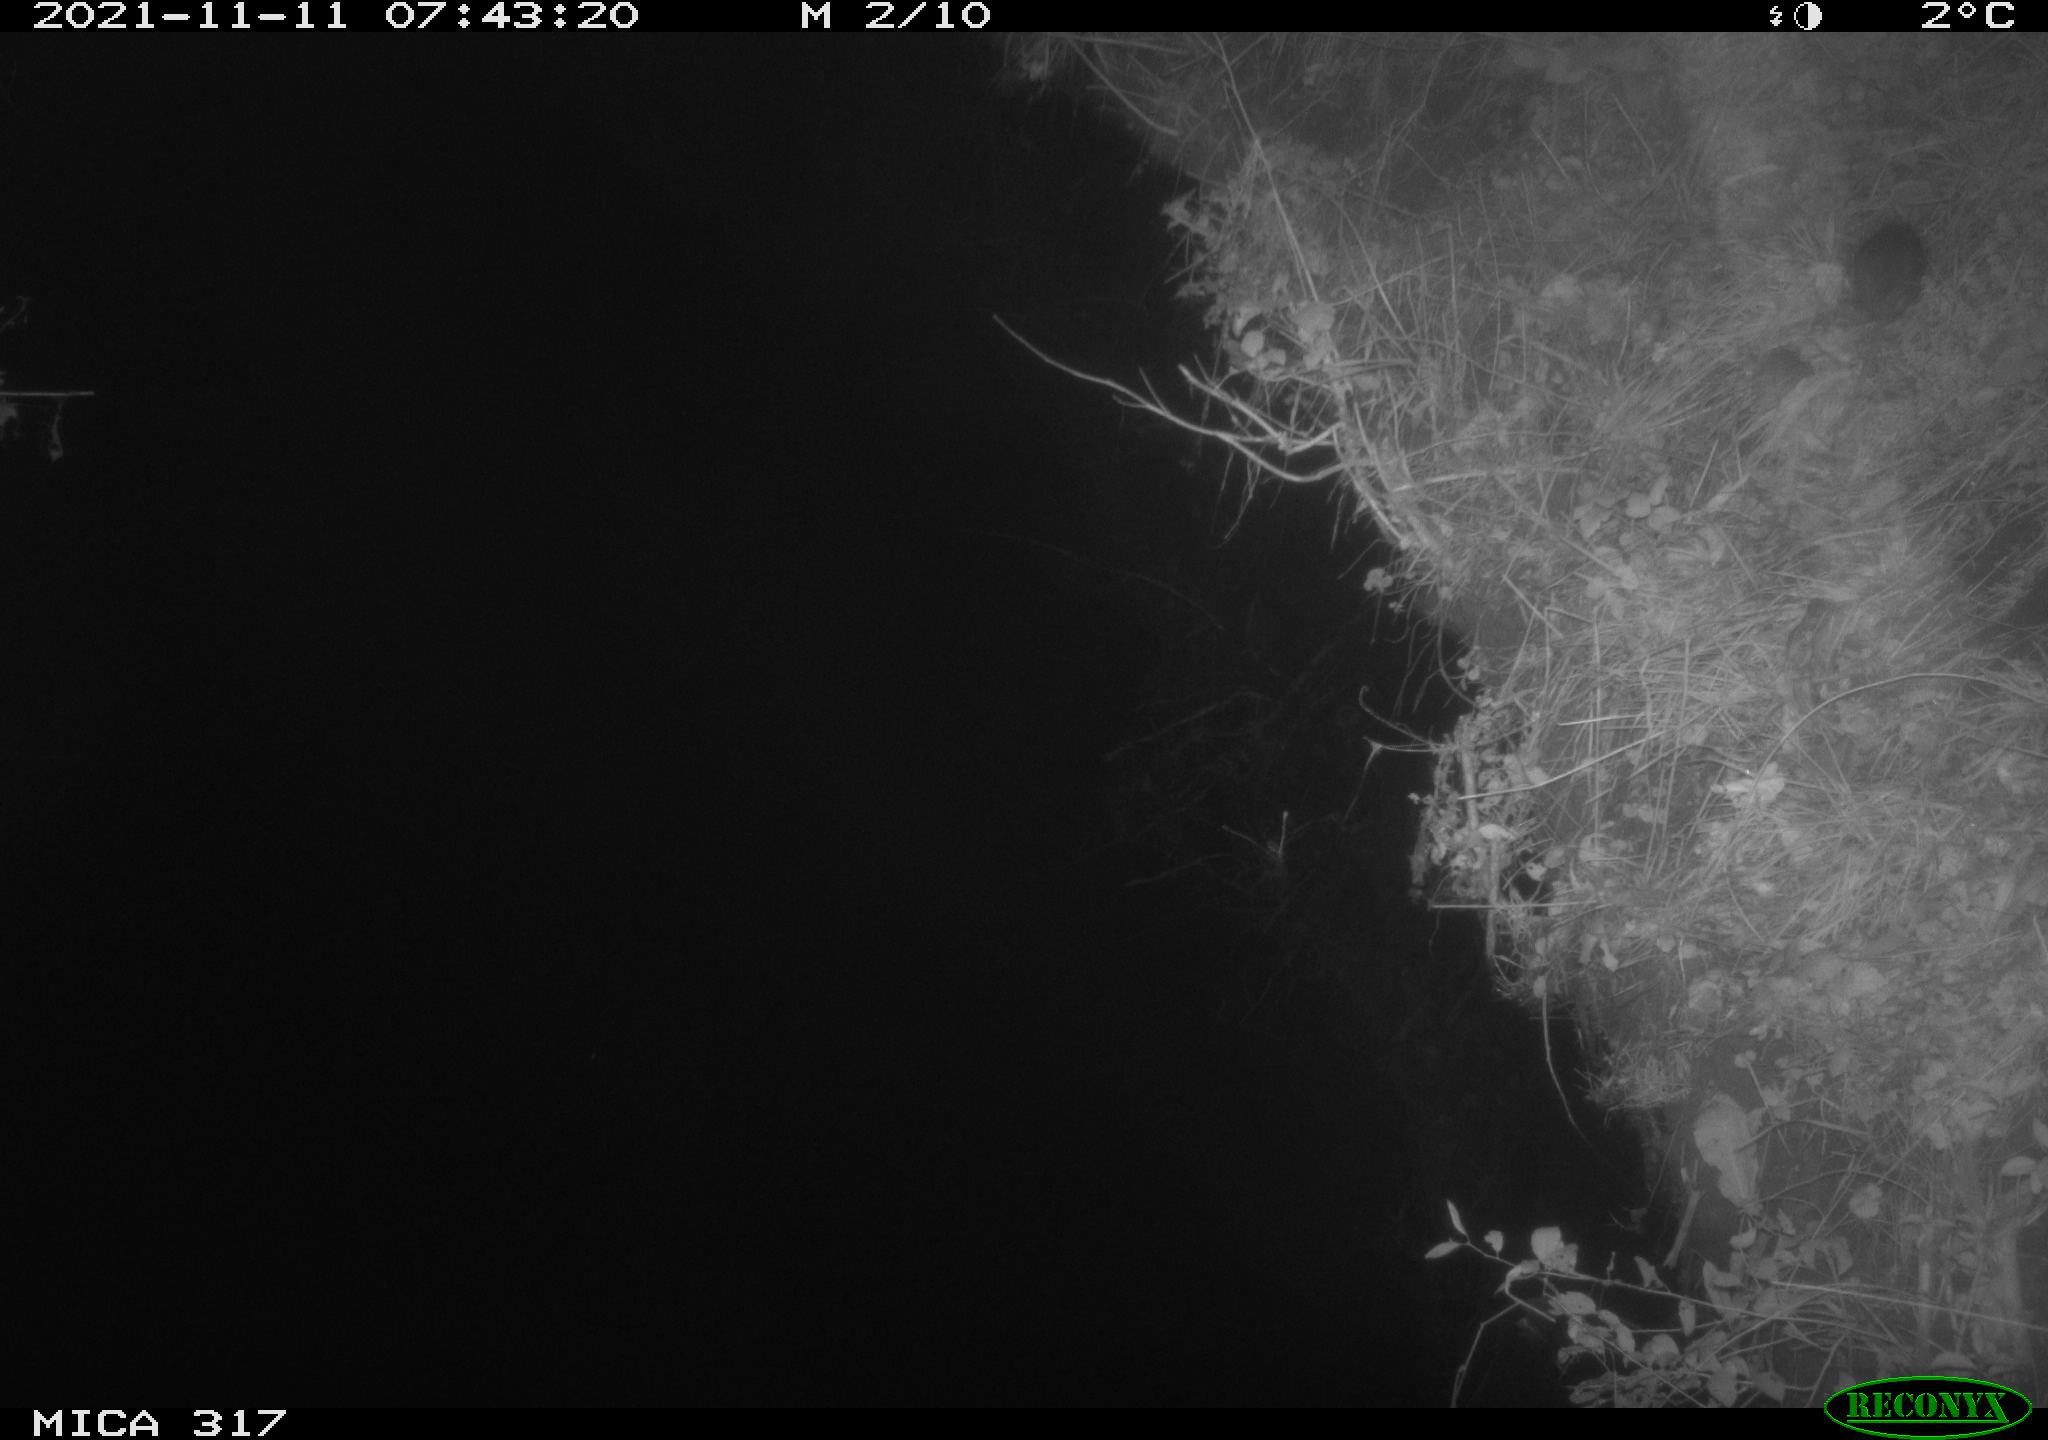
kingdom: Animalia
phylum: Chordata
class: Mammalia
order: Rodentia
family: Muridae
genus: Rattus
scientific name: Rattus norvegicus
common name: Brown rat
